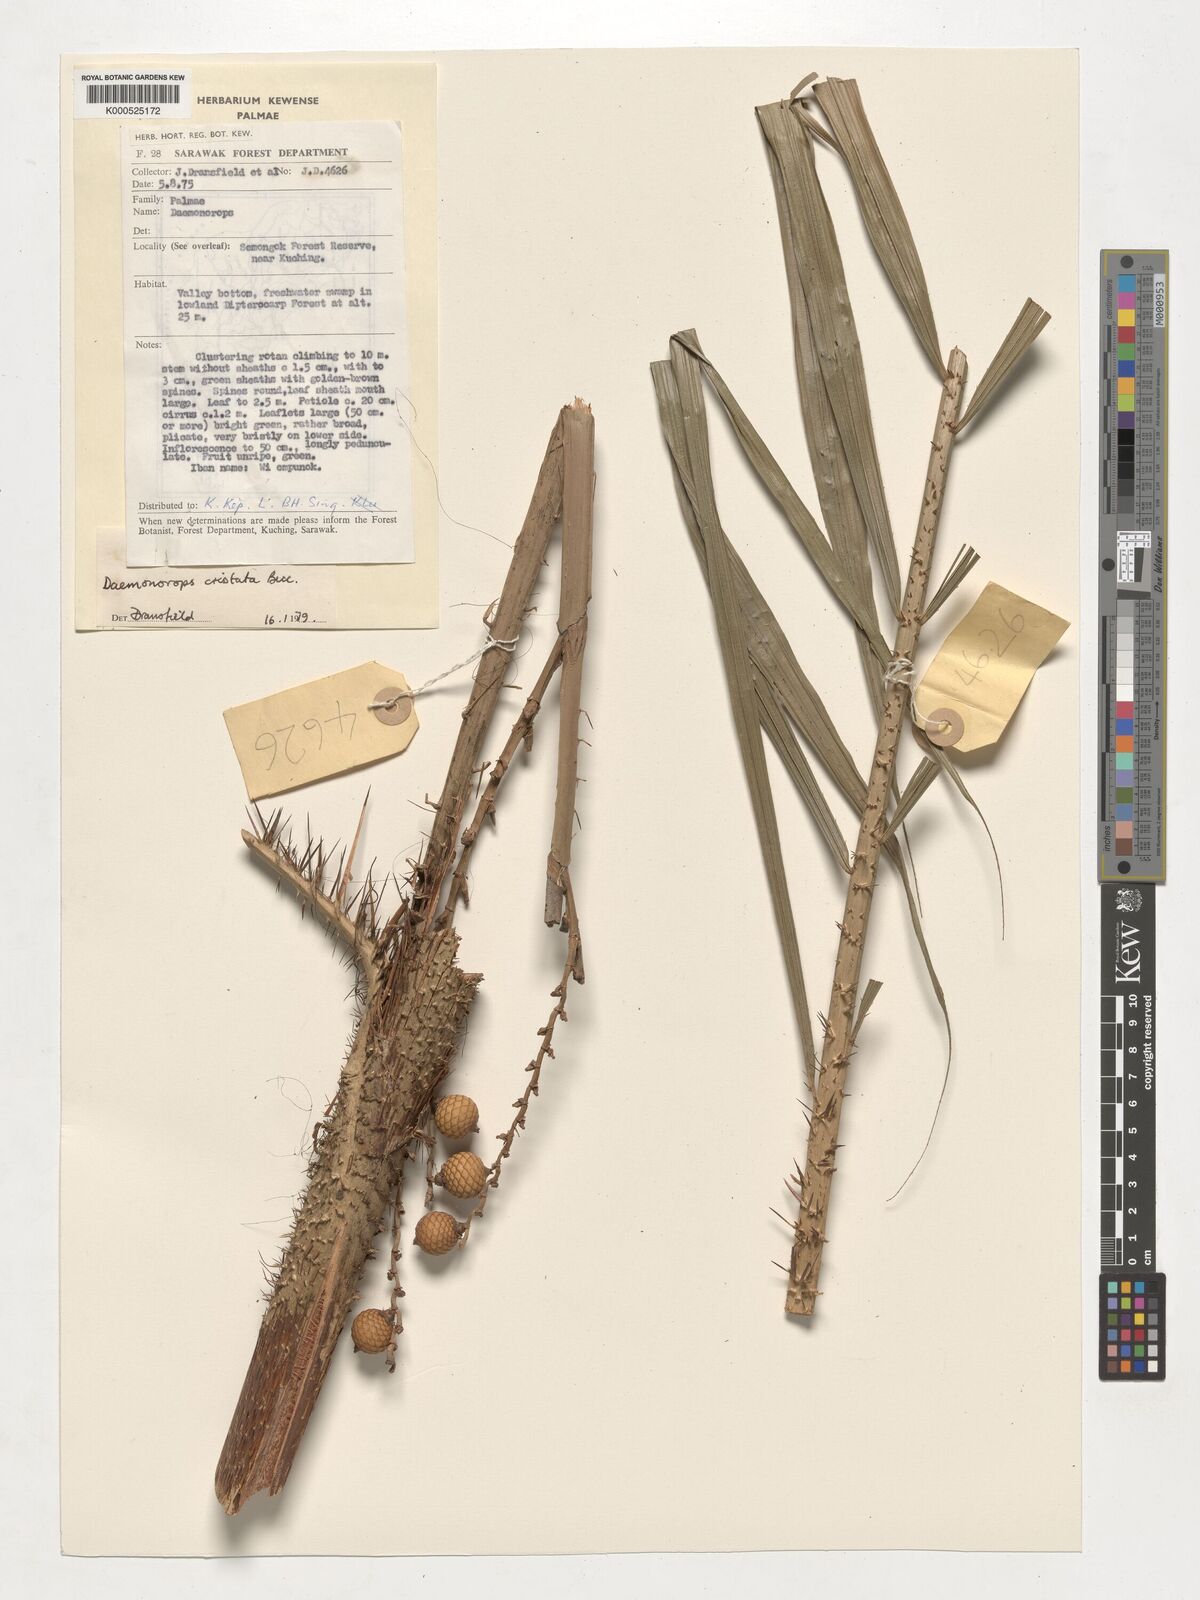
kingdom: Plantae
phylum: Tracheophyta
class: Liliopsida
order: Arecales
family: Arecaceae
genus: Calamus
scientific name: Calamus cristatus
